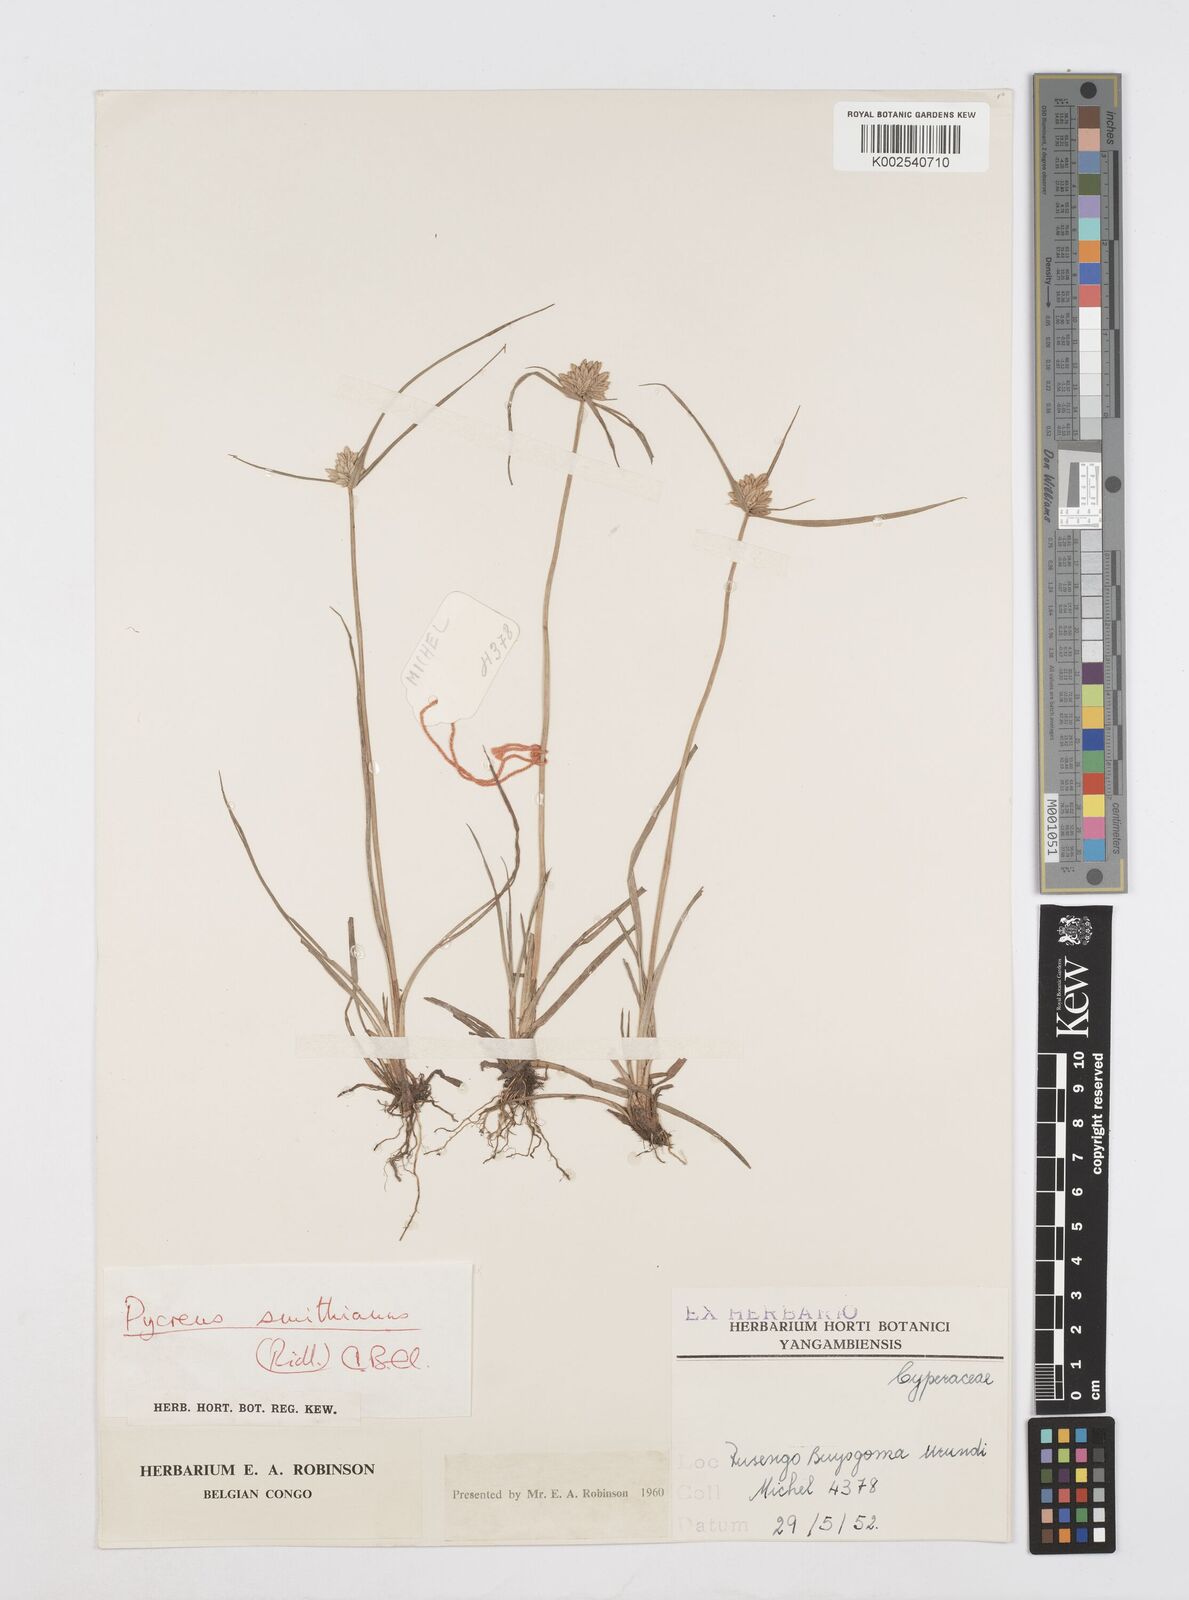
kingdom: Plantae
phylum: Tracheophyta
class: Liliopsida
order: Poales
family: Cyperaceae
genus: Cyperus
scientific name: Cyperus smithianus
